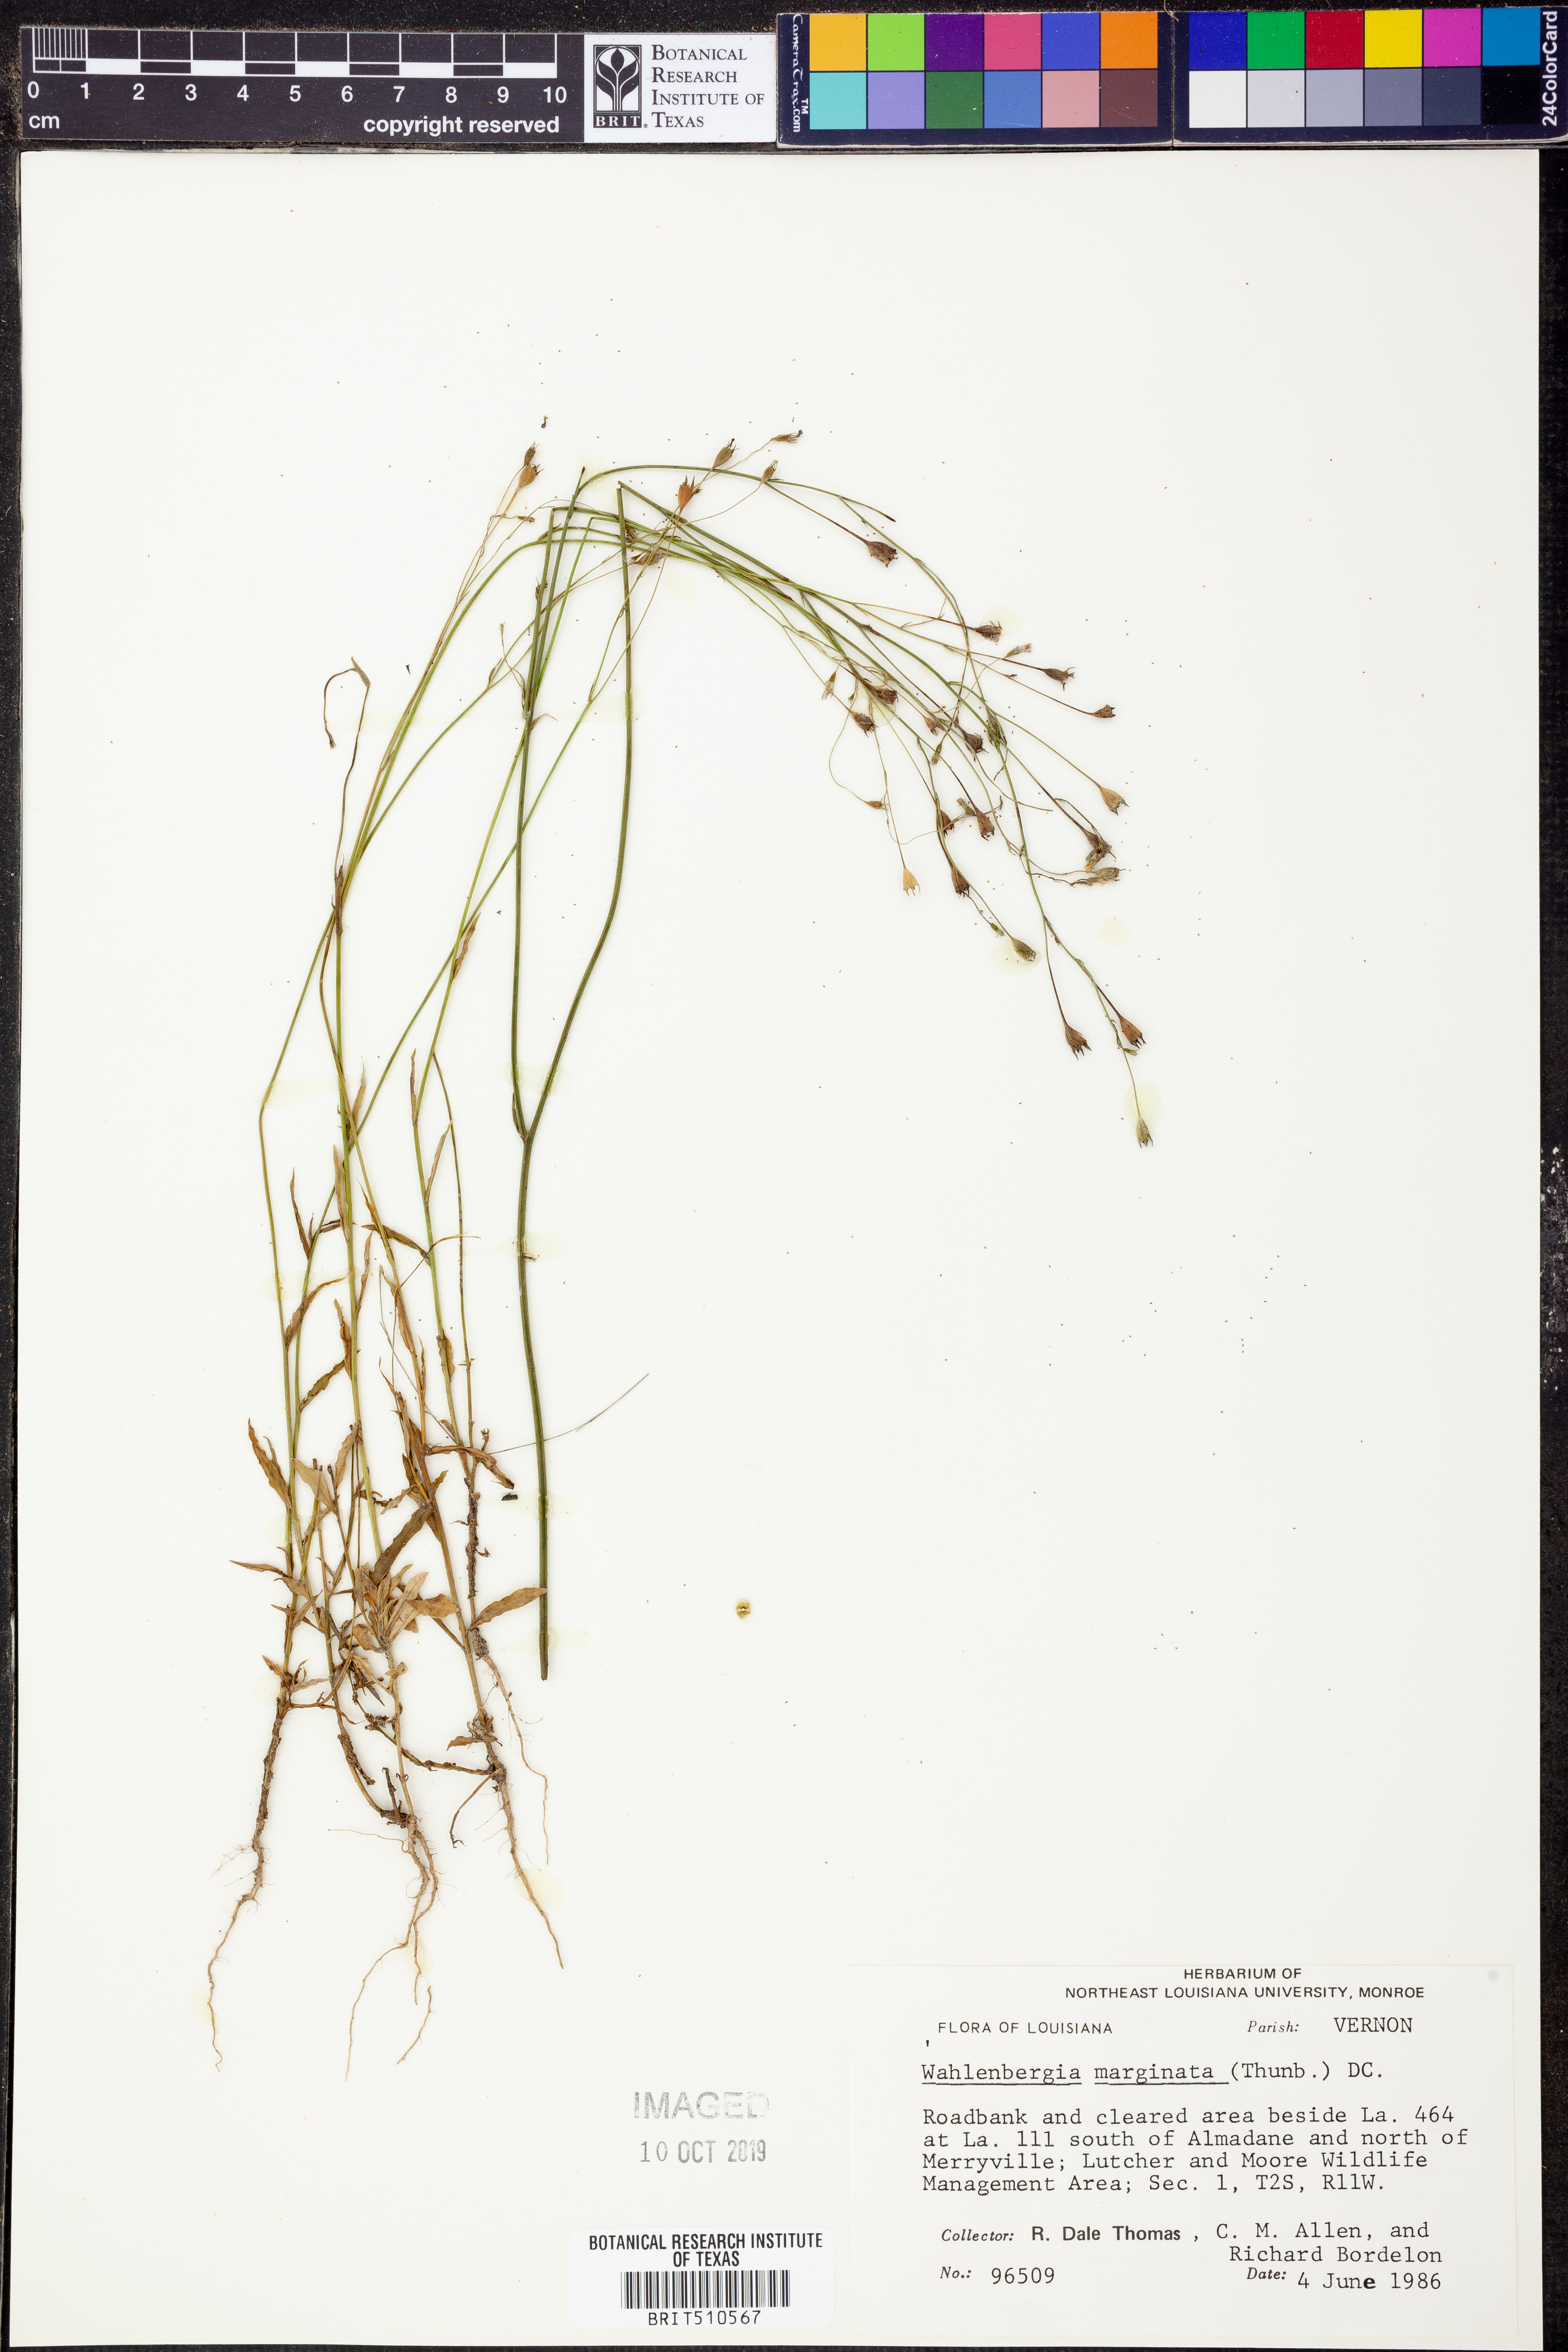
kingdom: Plantae
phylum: Tracheophyta
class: Magnoliopsida
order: Asterales
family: Campanulaceae
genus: Wahlenbergia
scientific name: Wahlenbergia marginata
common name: Southern rockbell
